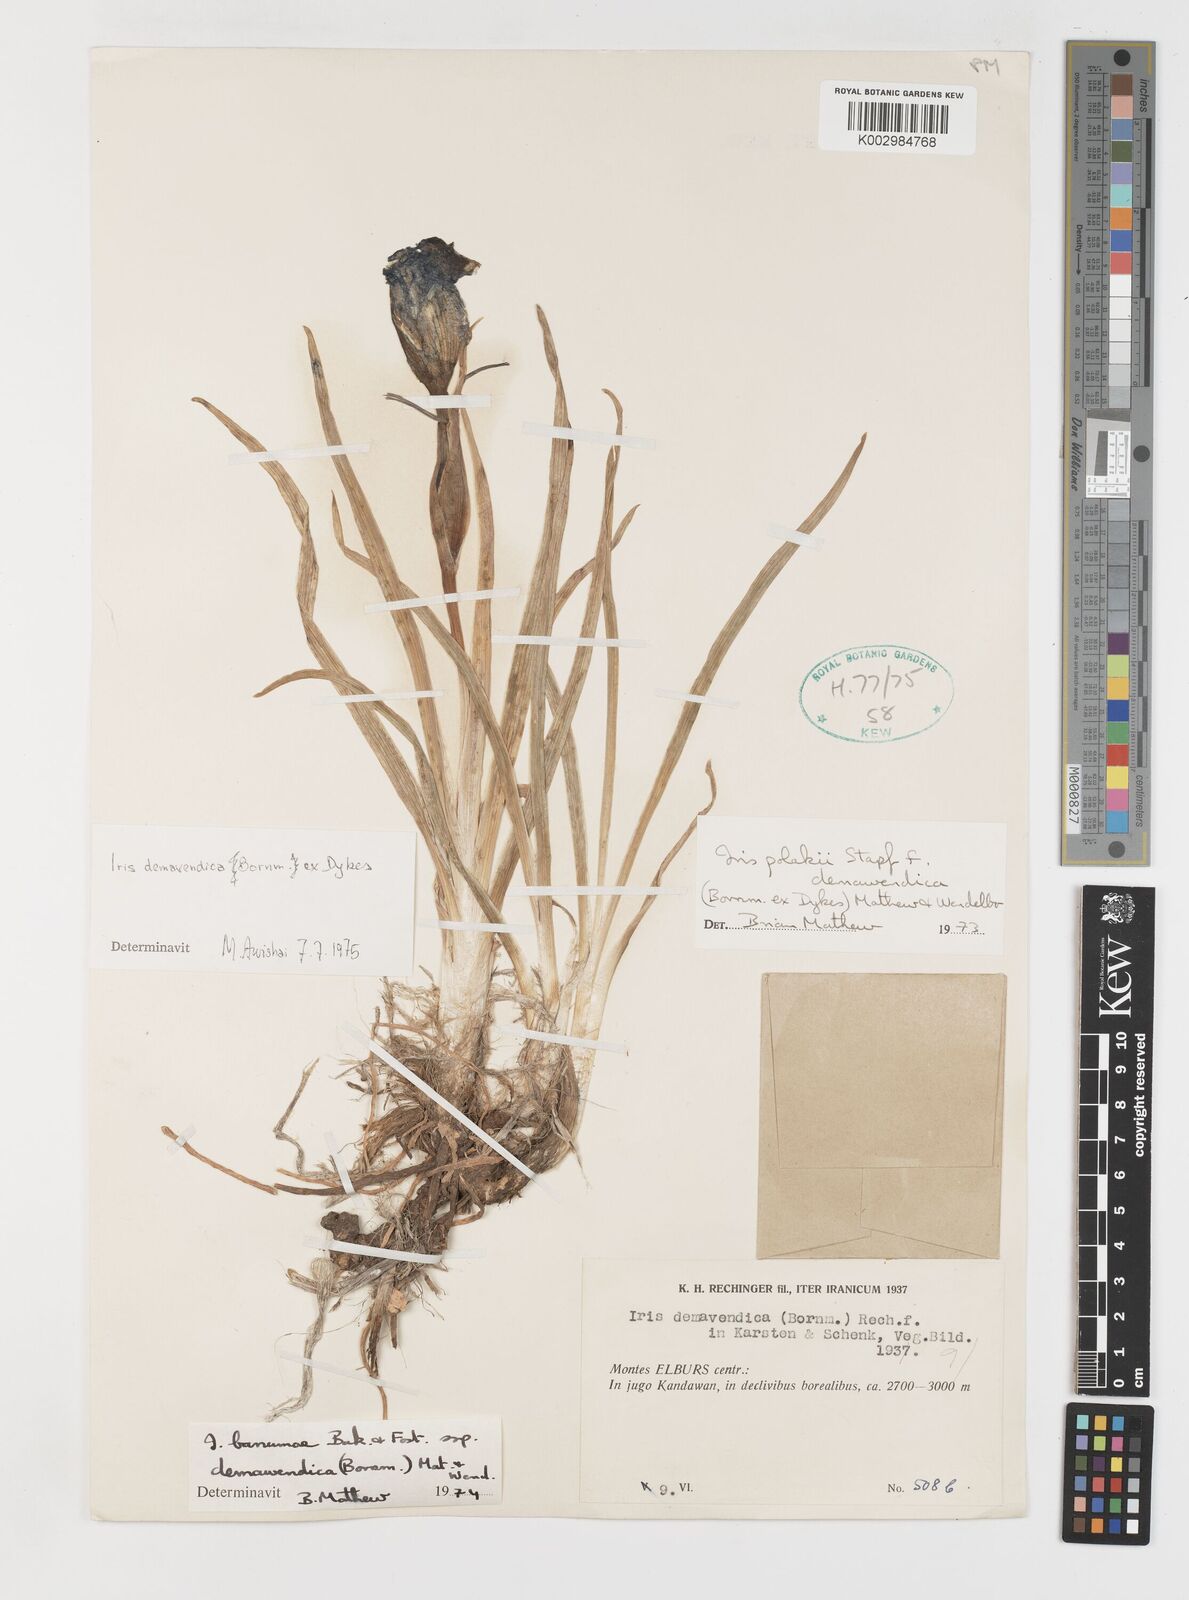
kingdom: Plantae
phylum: Tracheophyta
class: Liliopsida
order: Asparagales
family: Iridaceae
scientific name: Iridaceae
